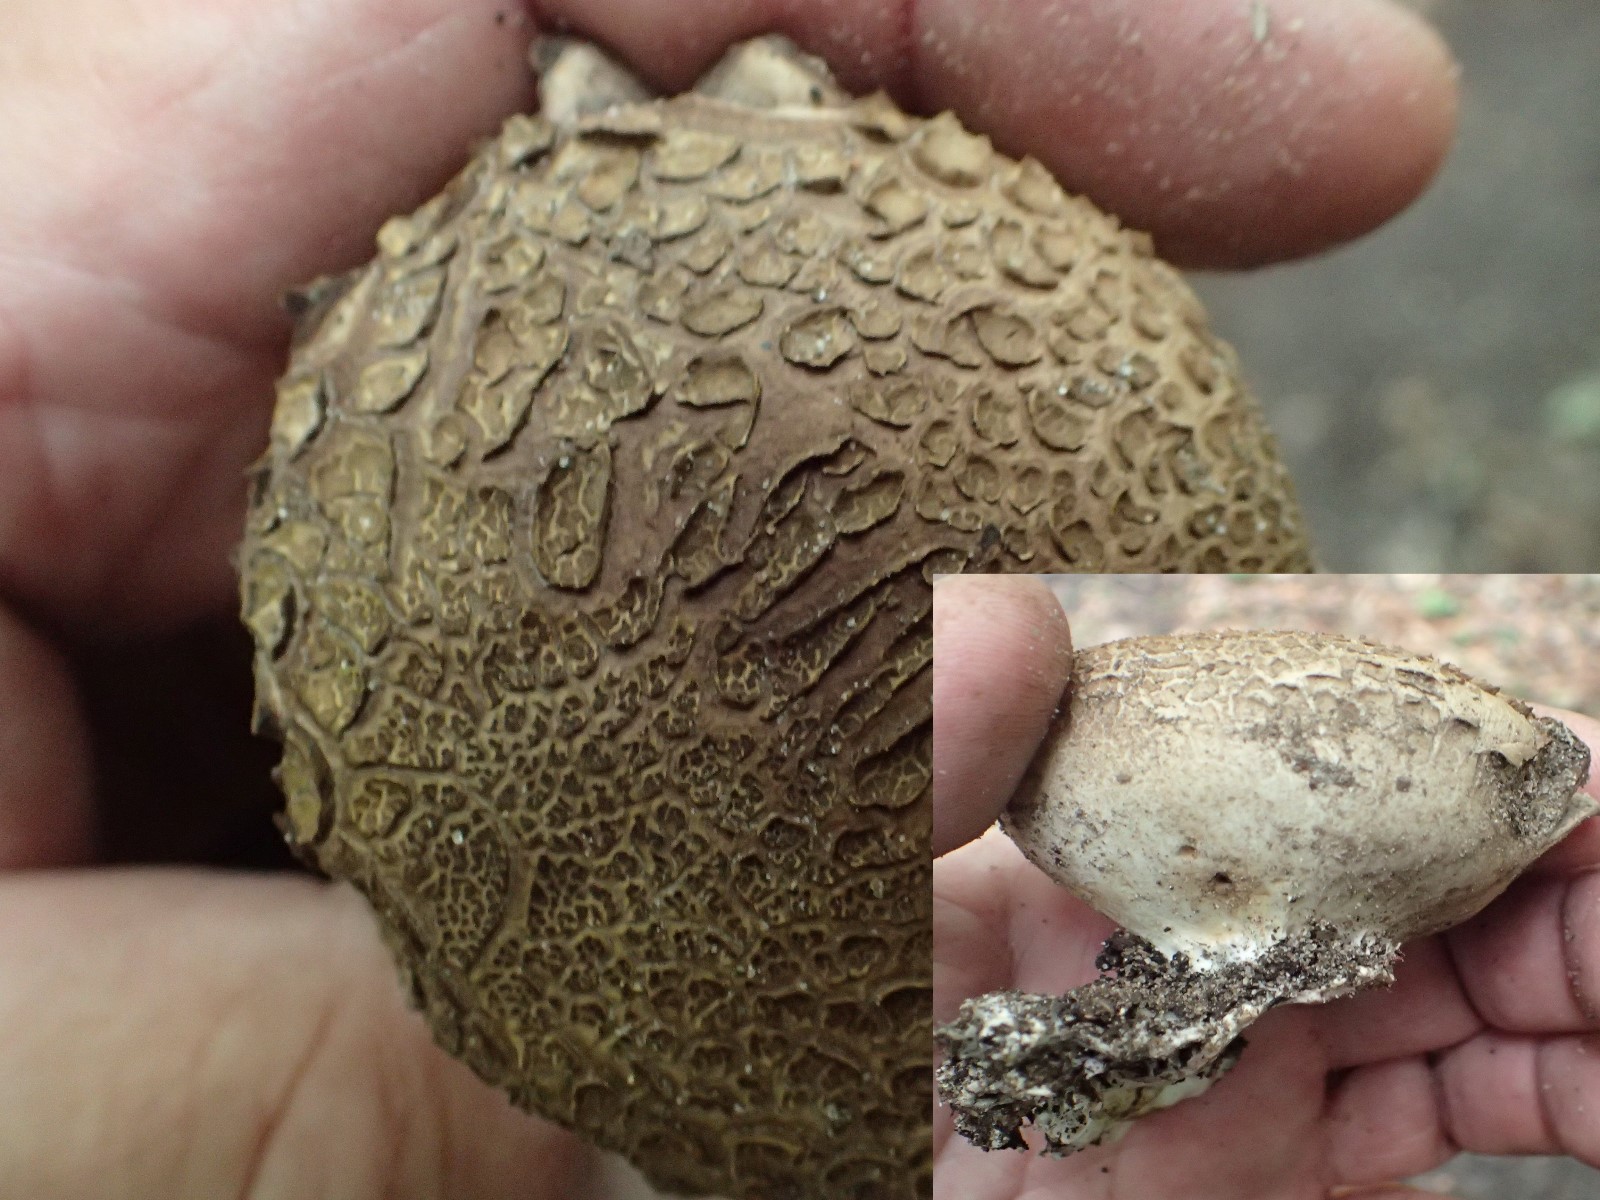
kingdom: Fungi
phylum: Basidiomycota
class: Agaricomycetes
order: Boletales
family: Sclerodermataceae
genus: Scleroderma
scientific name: Scleroderma
